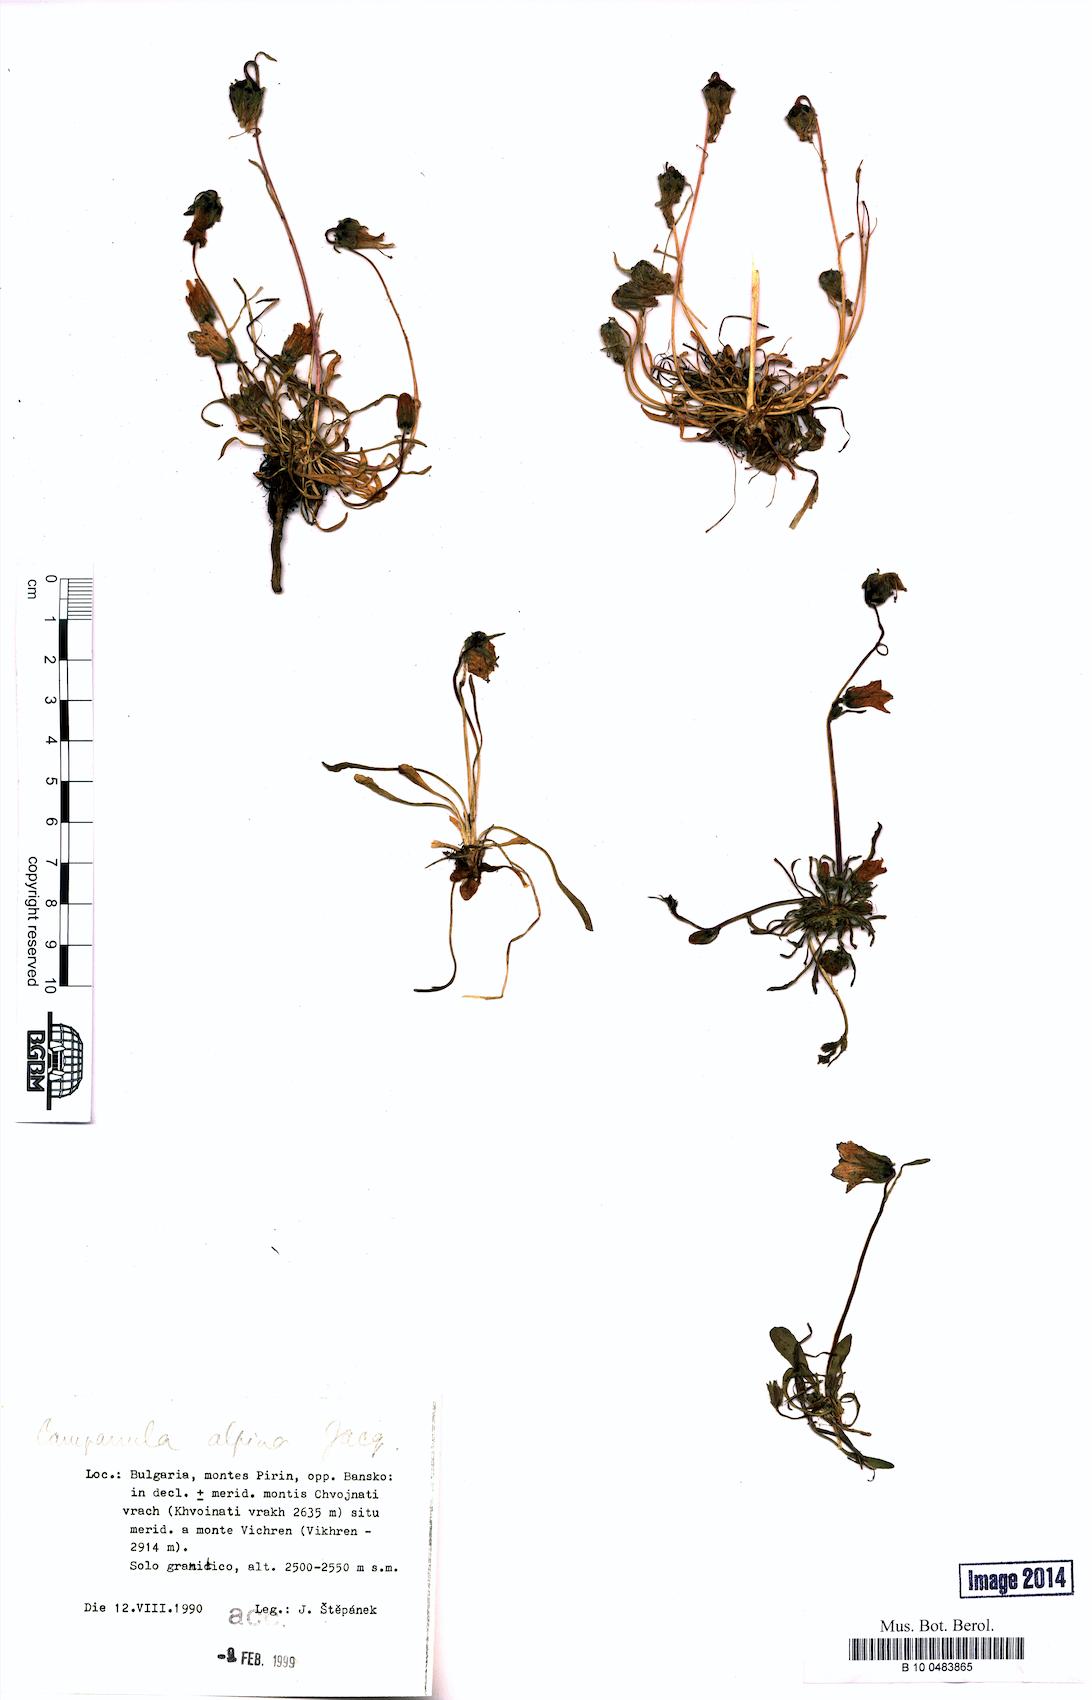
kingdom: Plantae
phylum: Tracheophyta
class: Magnoliopsida
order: Asterales
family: Campanulaceae
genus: Campanula
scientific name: Campanula alpina
